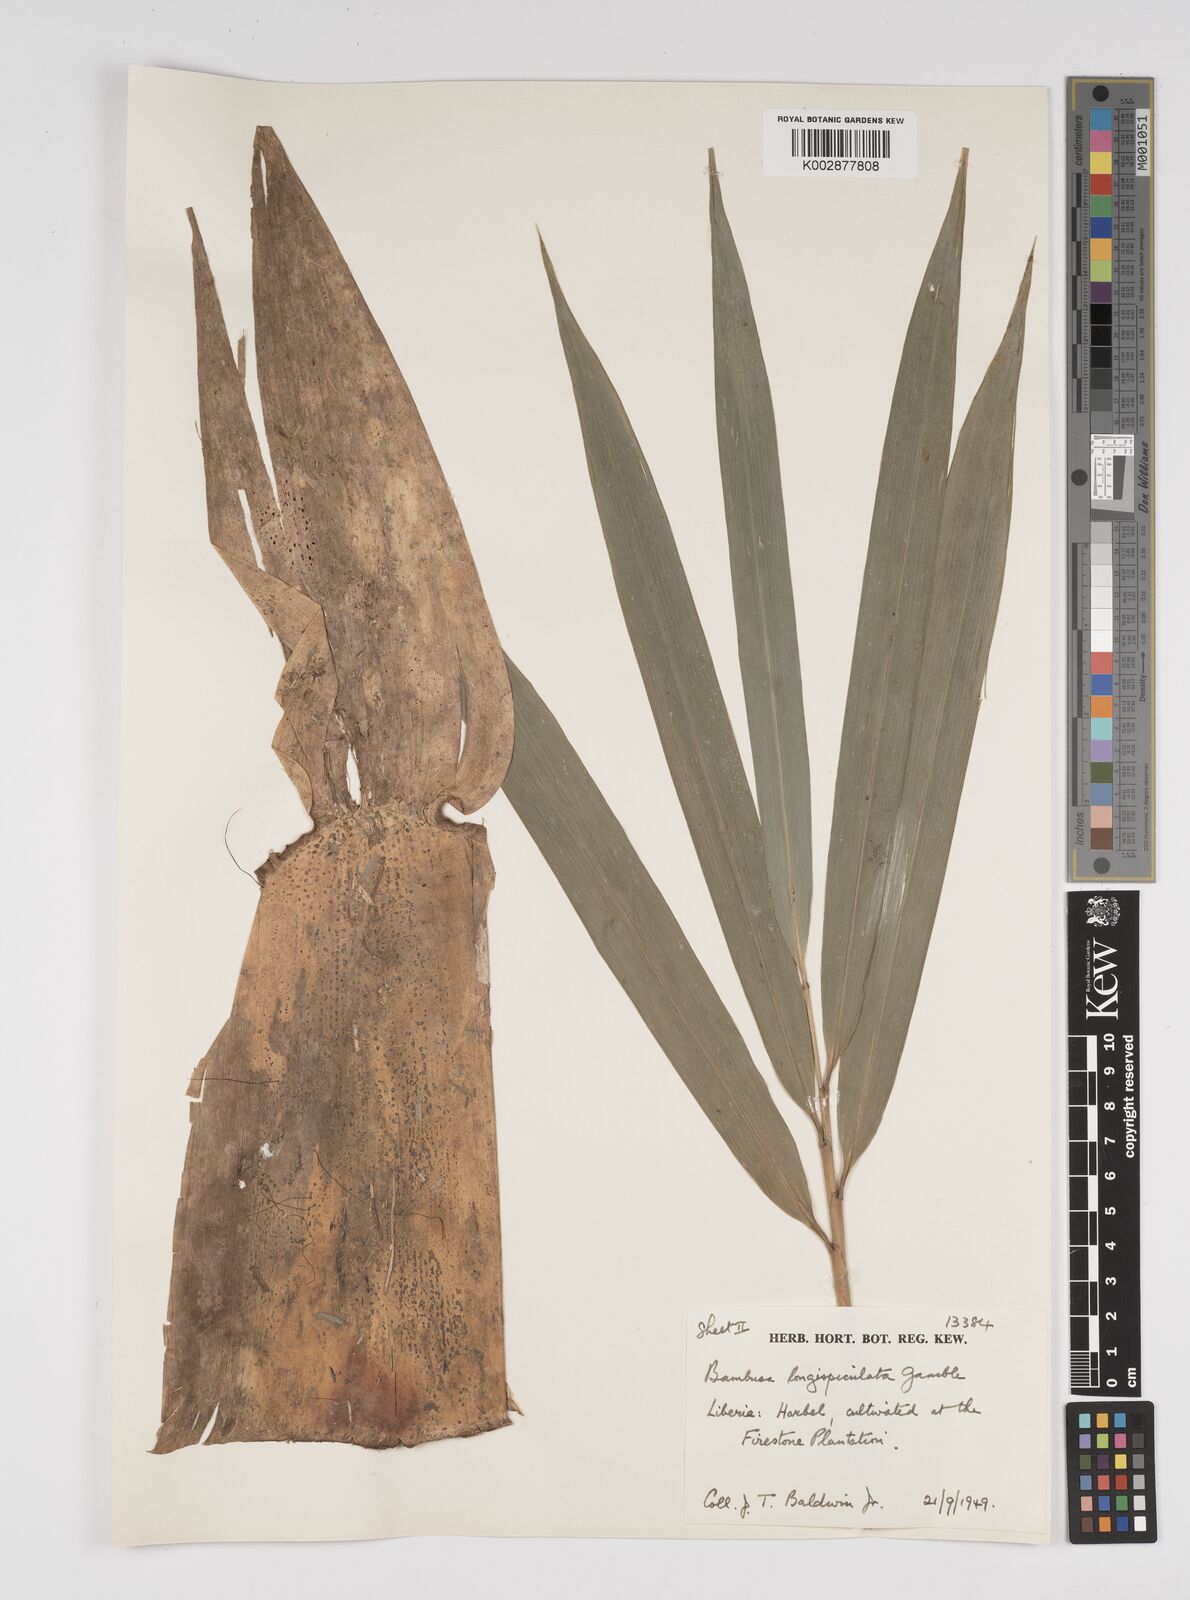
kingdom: Plantae
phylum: Tracheophyta
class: Liliopsida
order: Poales
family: Poaceae
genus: Bambusa
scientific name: Bambusa longispiculata
